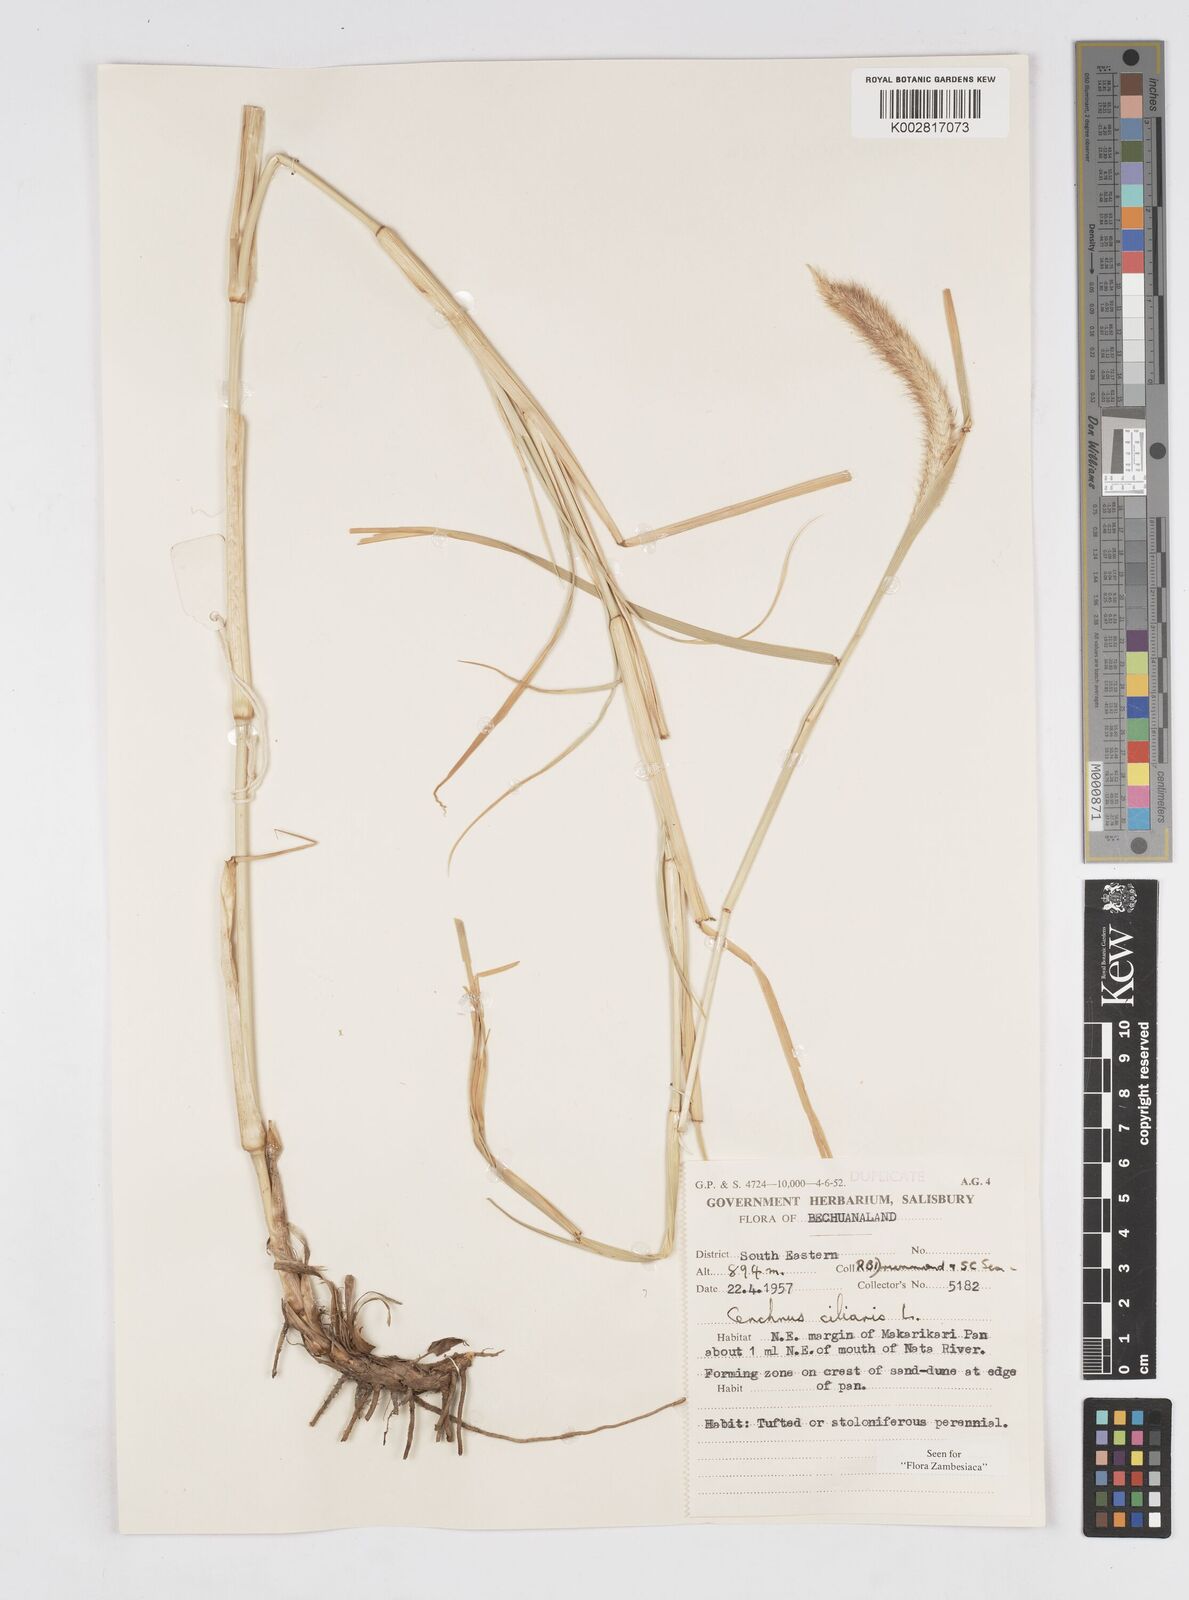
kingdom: Plantae
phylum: Tracheophyta
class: Liliopsida
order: Poales
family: Poaceae
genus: Cenchrus
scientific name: Cenchrus ciliaris
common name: Buffelgrass
